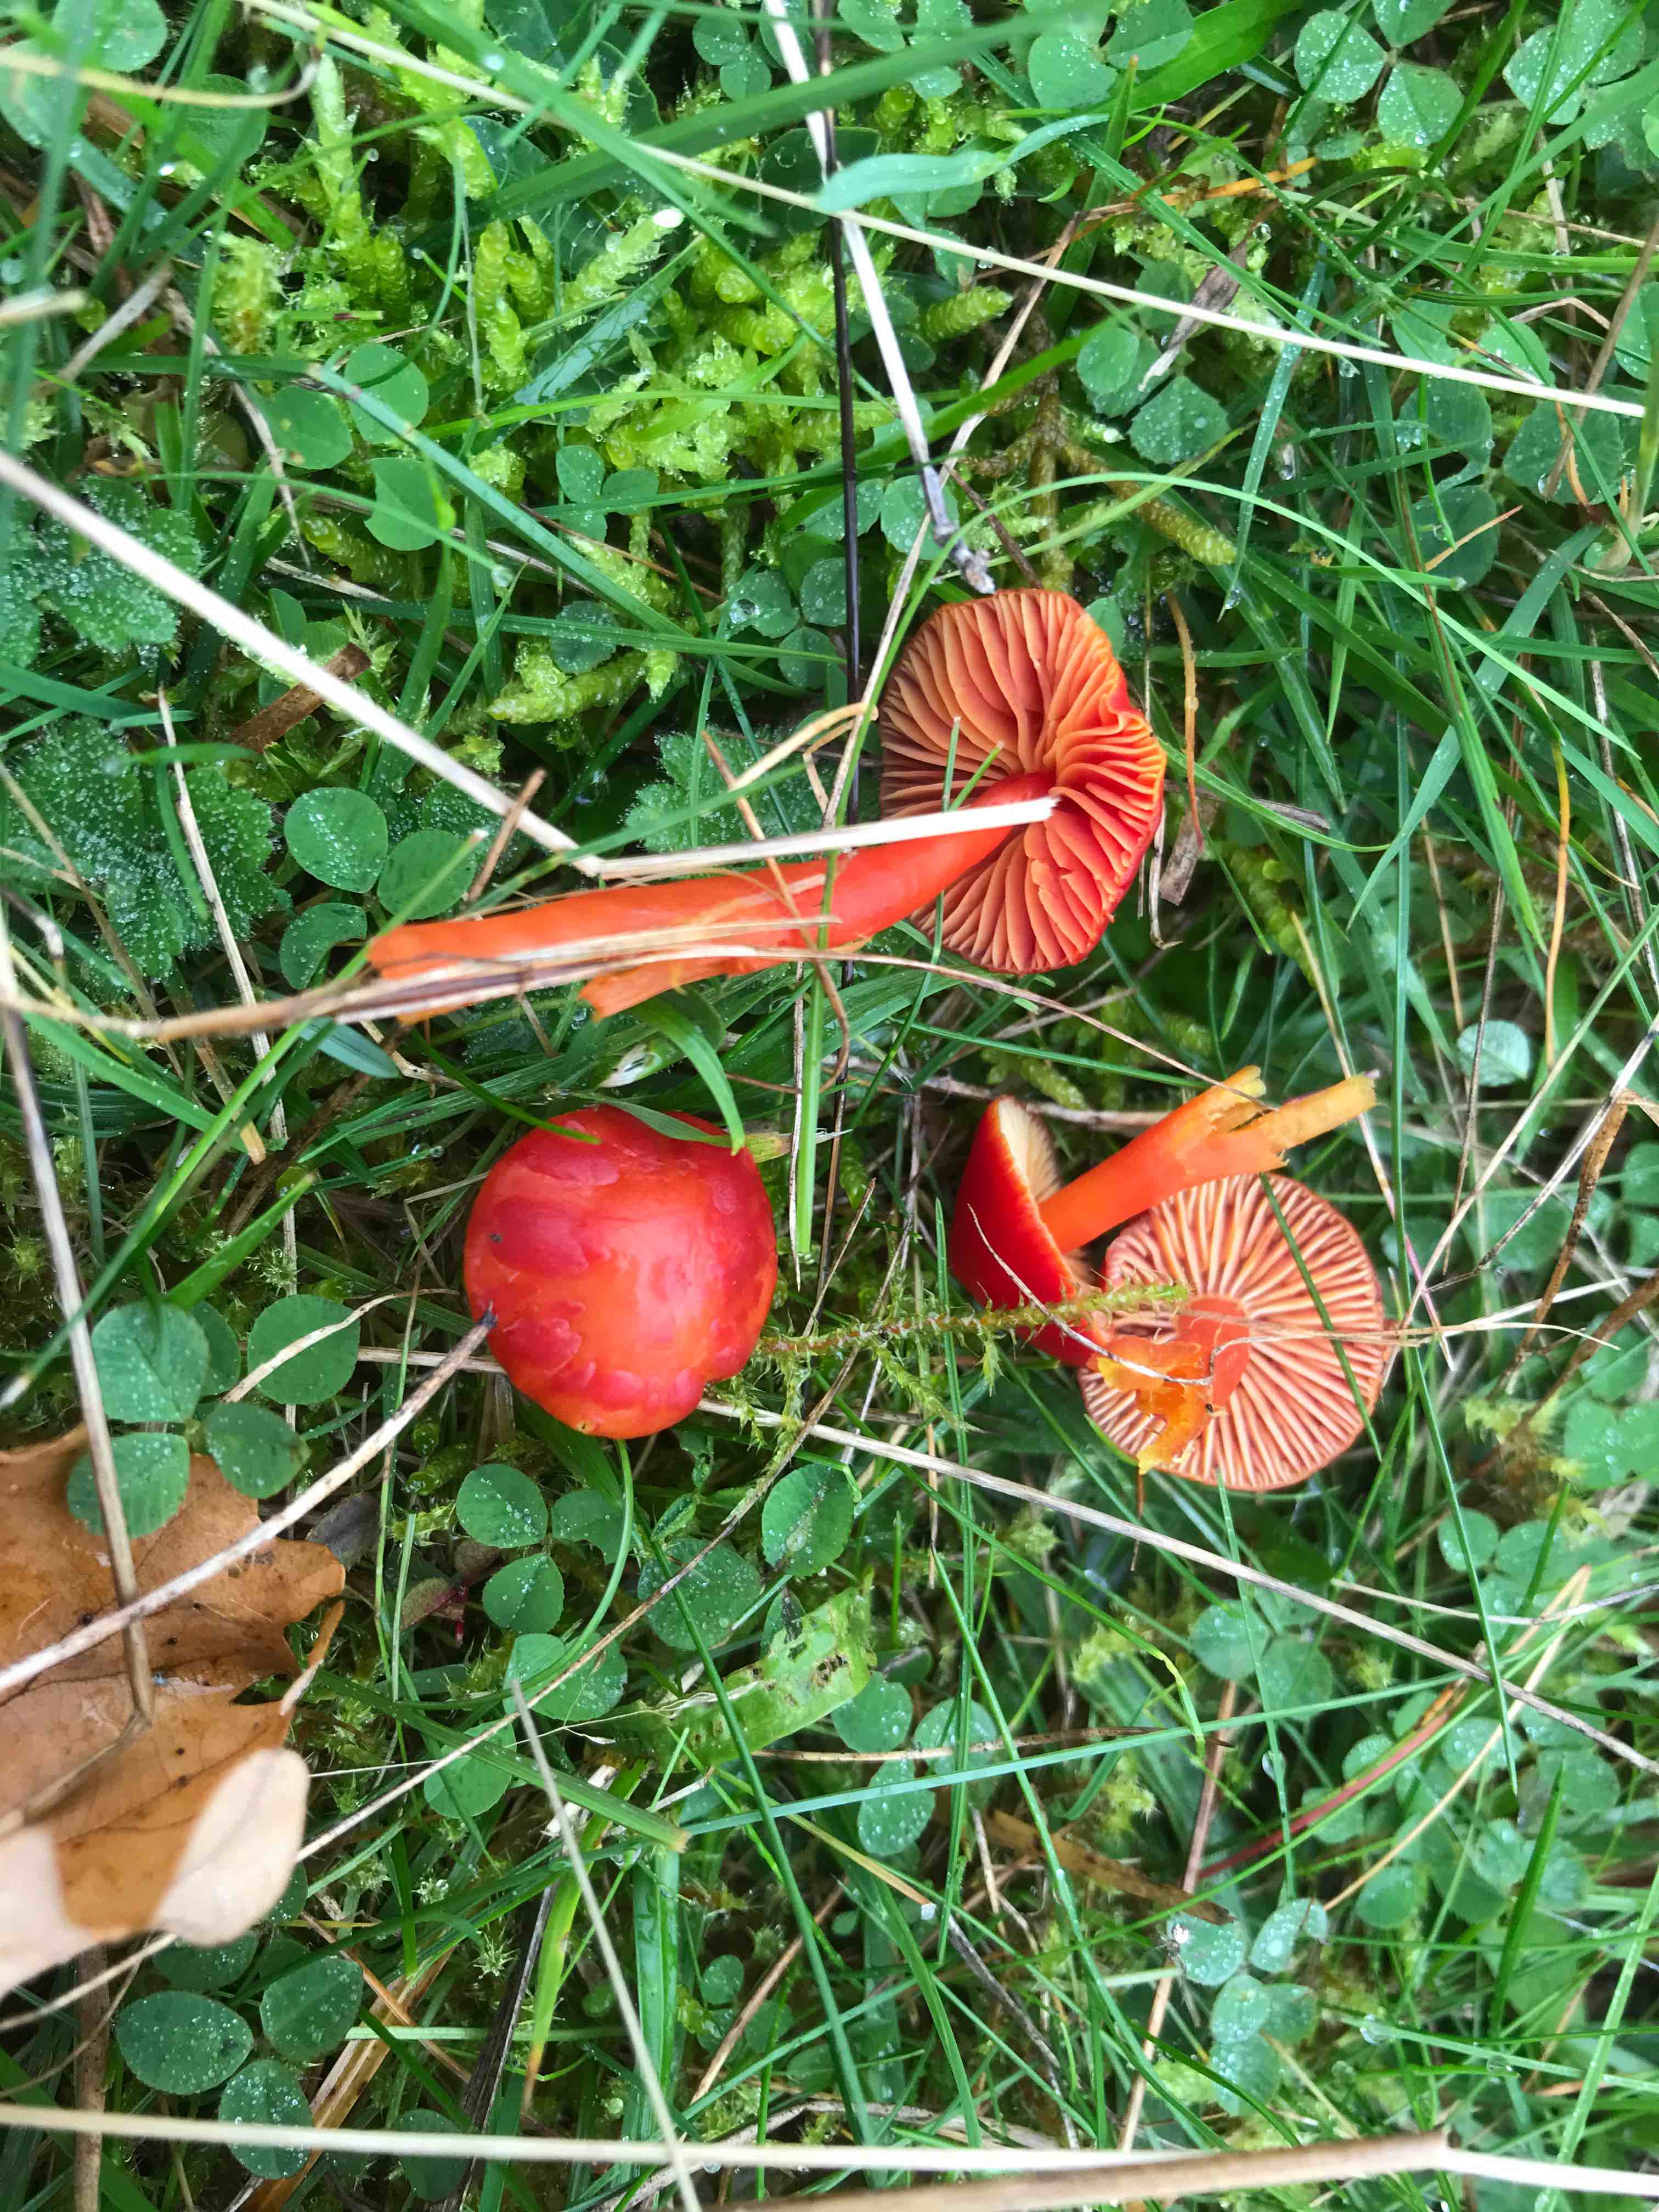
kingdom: Fungi
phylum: Basidiomycota
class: Agaricomycetes
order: Agaricales
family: Hygrophoraceae
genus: Hygrocybe
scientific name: Hygrocybe coccinea
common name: cinnober-vokshat
